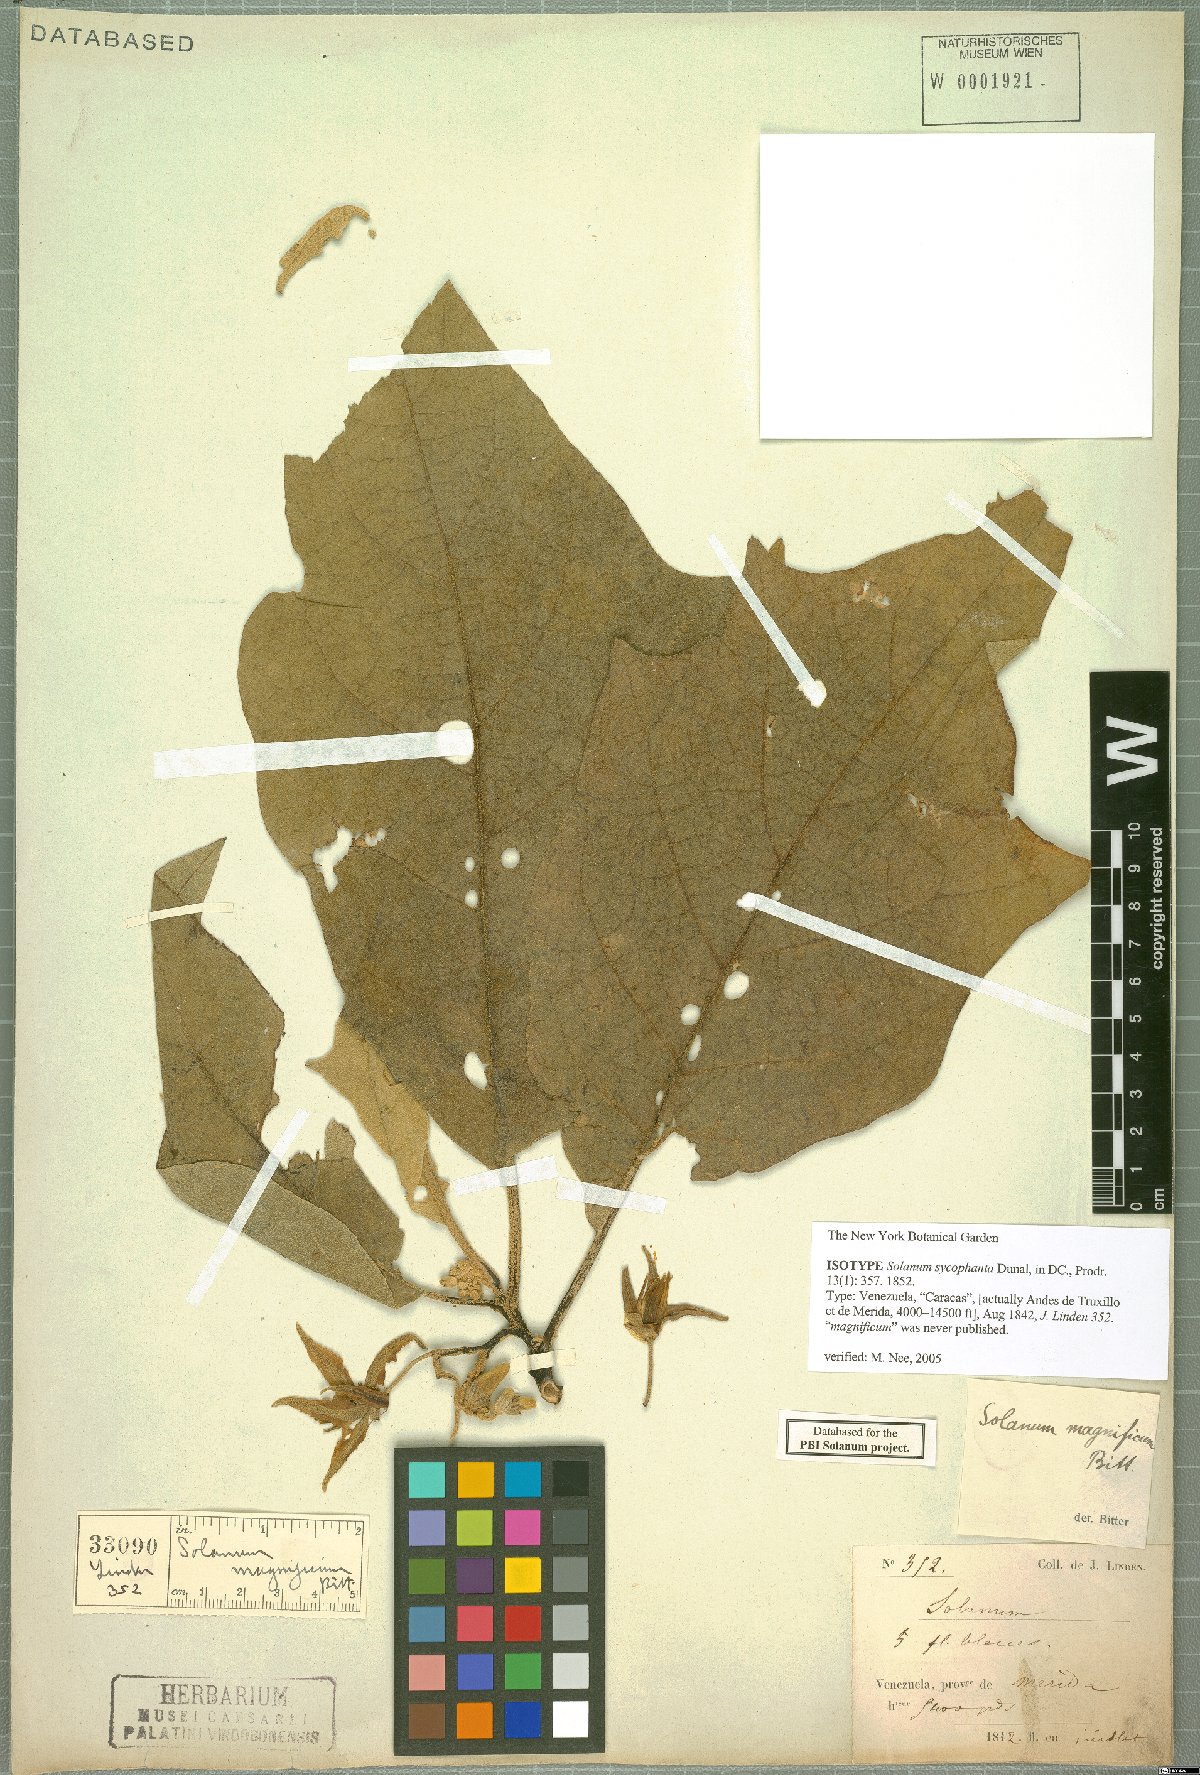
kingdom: Plantae
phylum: Tracheophyta
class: Magnoliopsida
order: Solanales
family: Solanaceae
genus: Solanum
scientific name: Solanum sycophanta
